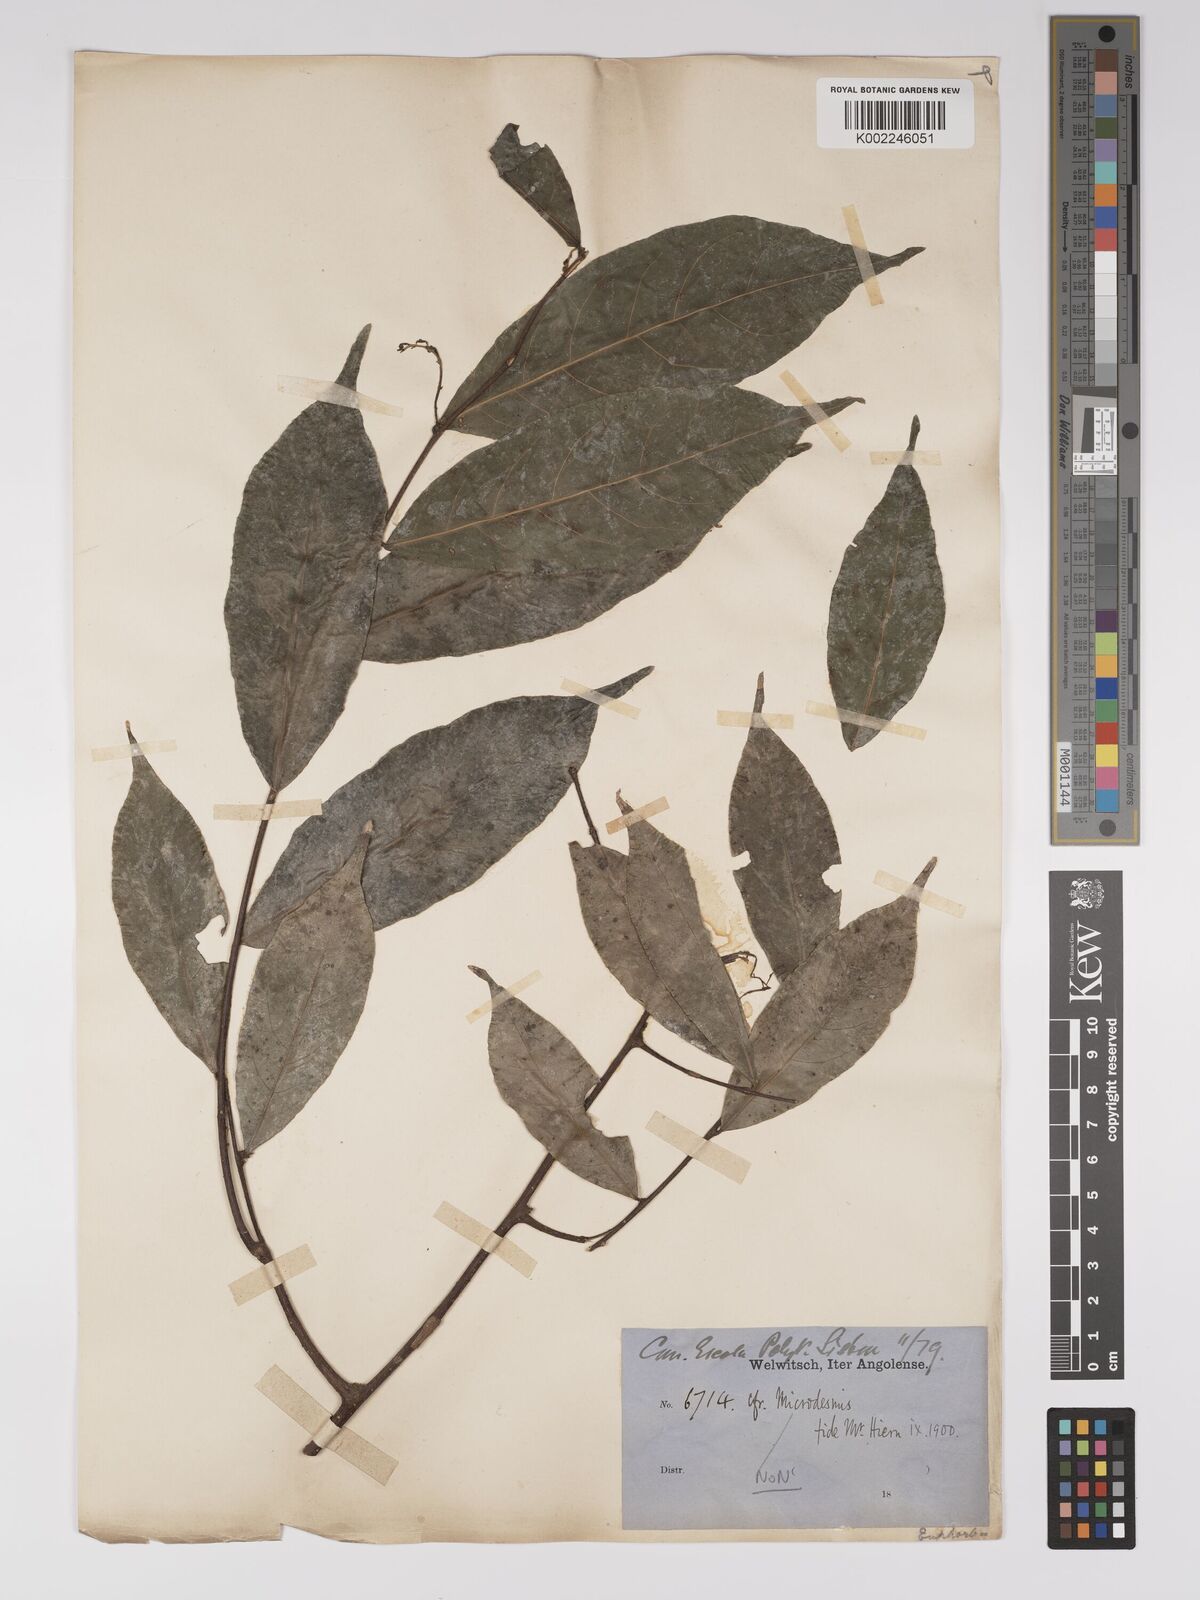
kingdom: Plantae
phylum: Tracheophyta
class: Magnoliopsida
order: Malpighiales
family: Euphorbiaceae
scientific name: Euphorbiaceae
